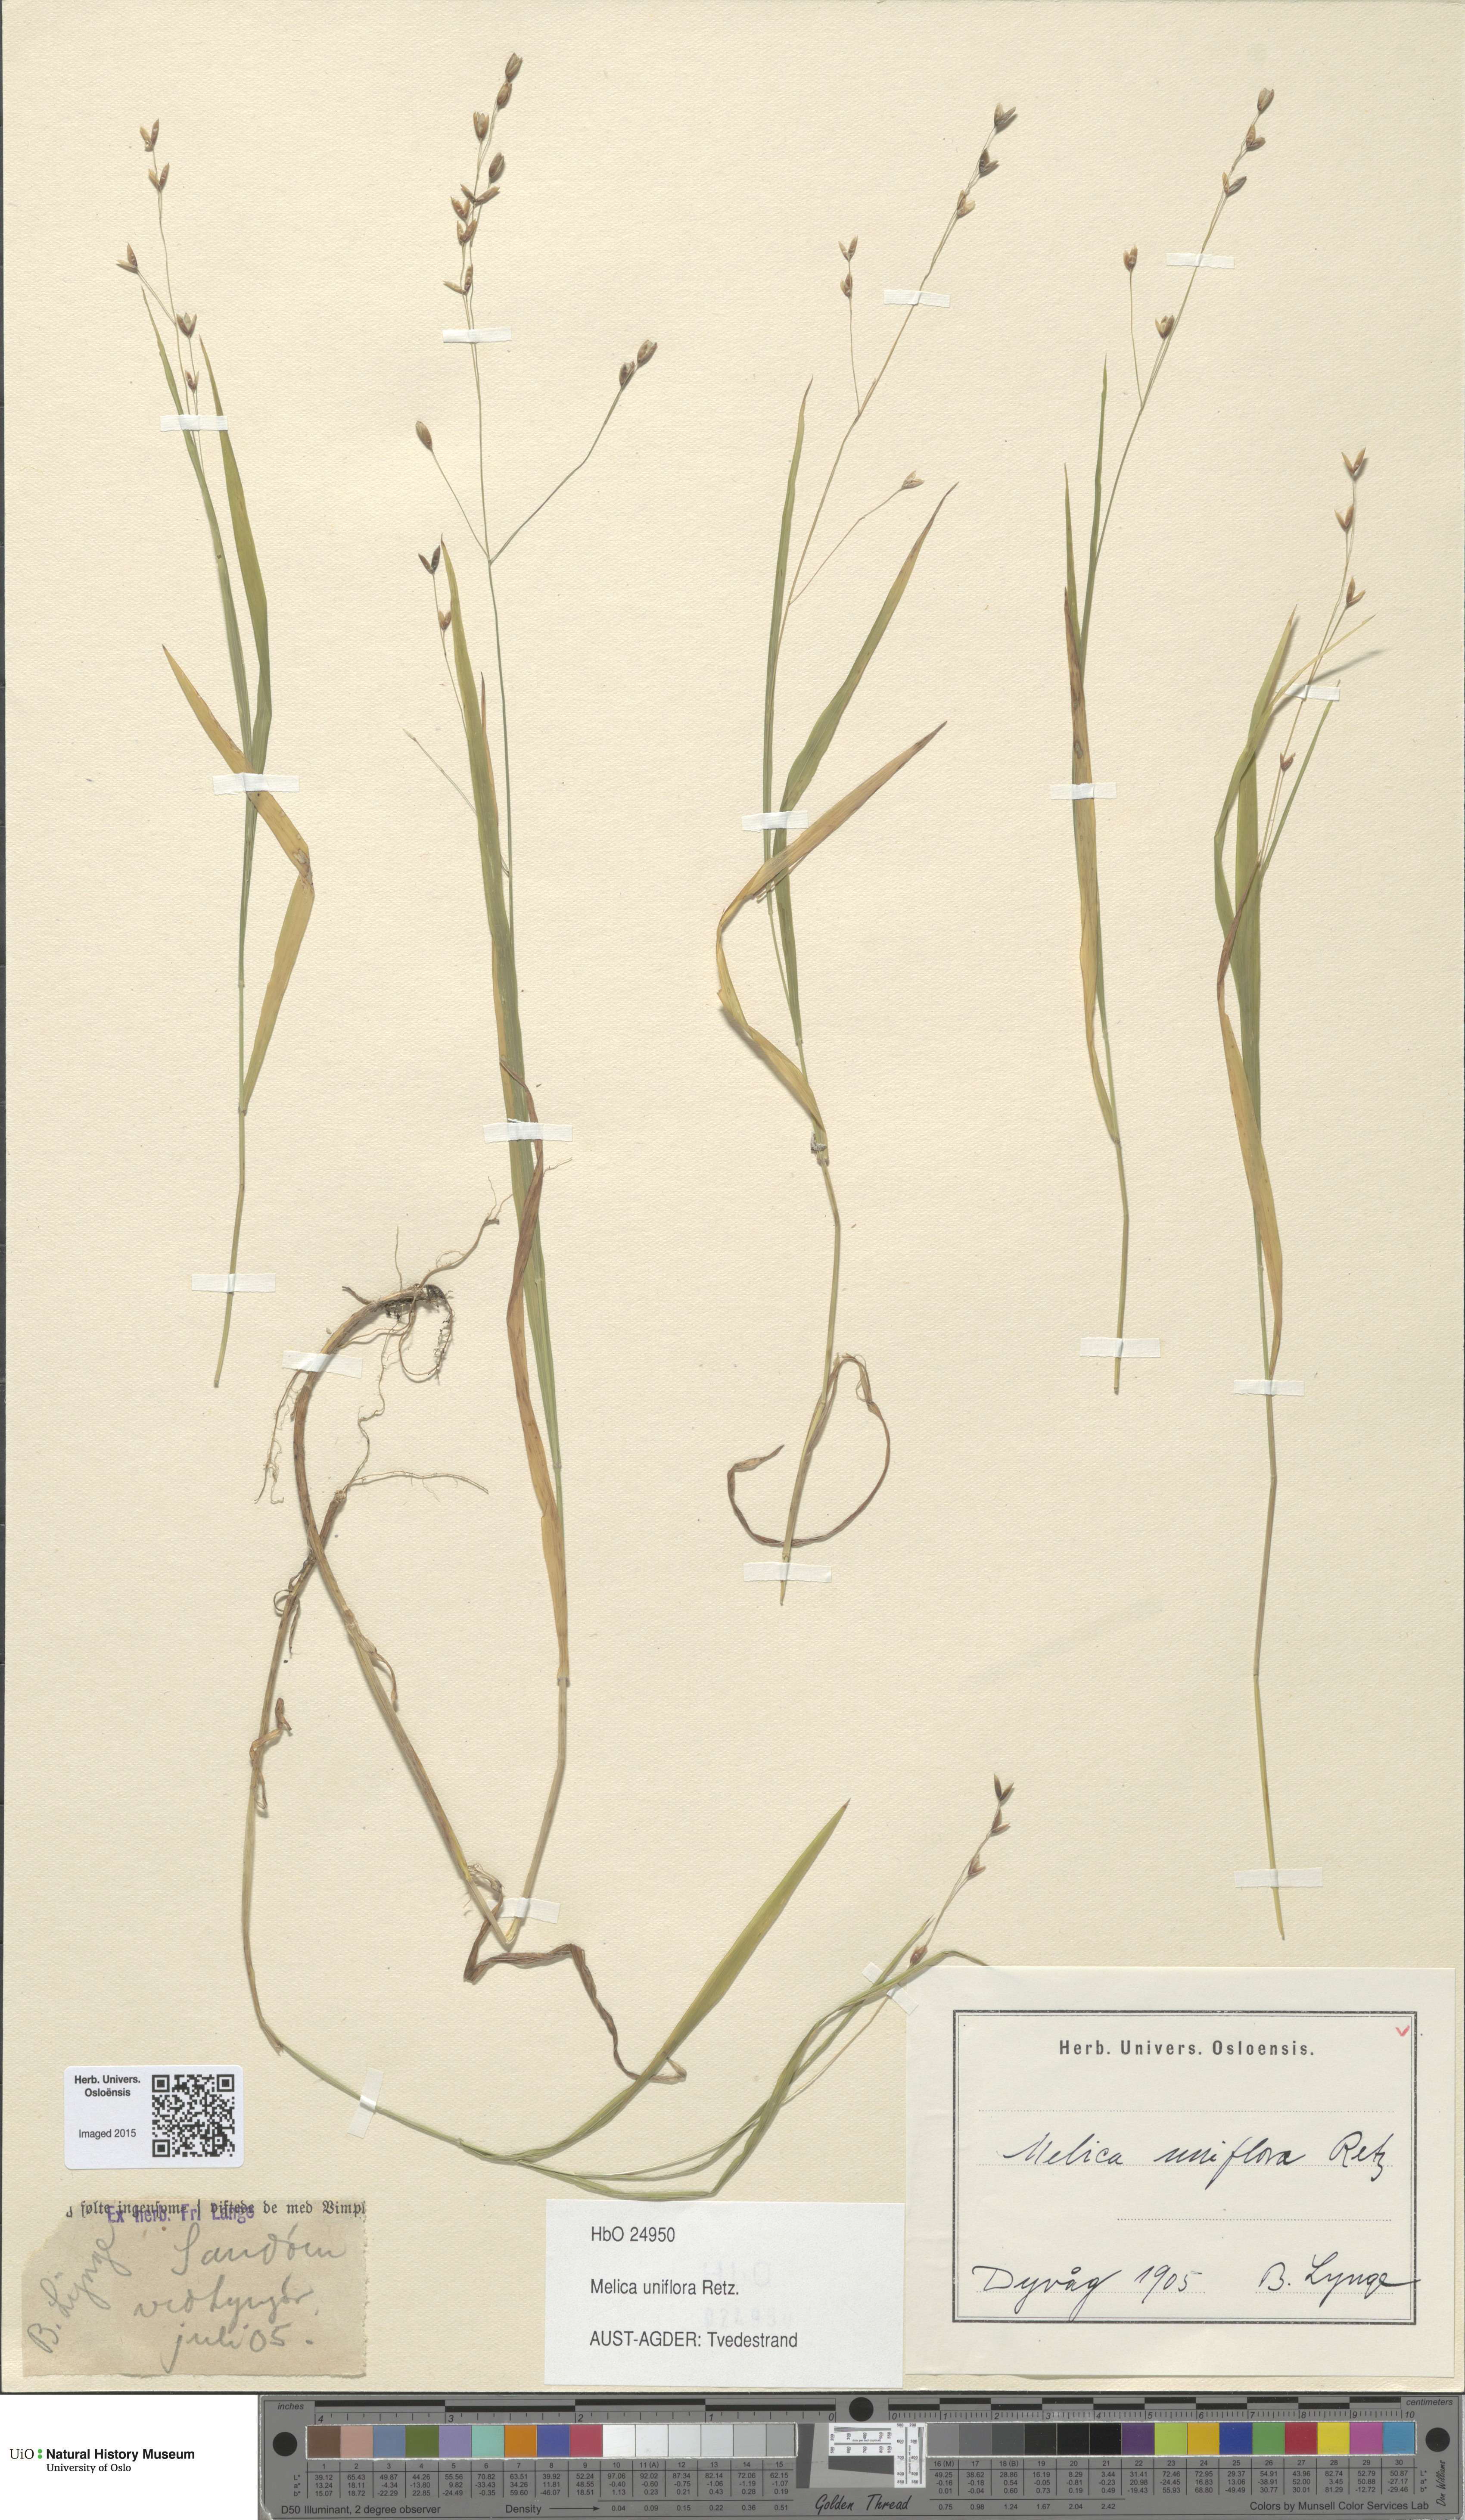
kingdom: Plantae
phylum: Tracheophyta
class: Liliopsida
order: Poales
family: Poaceae
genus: Melica
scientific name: Melica uniflora
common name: Wood melick
